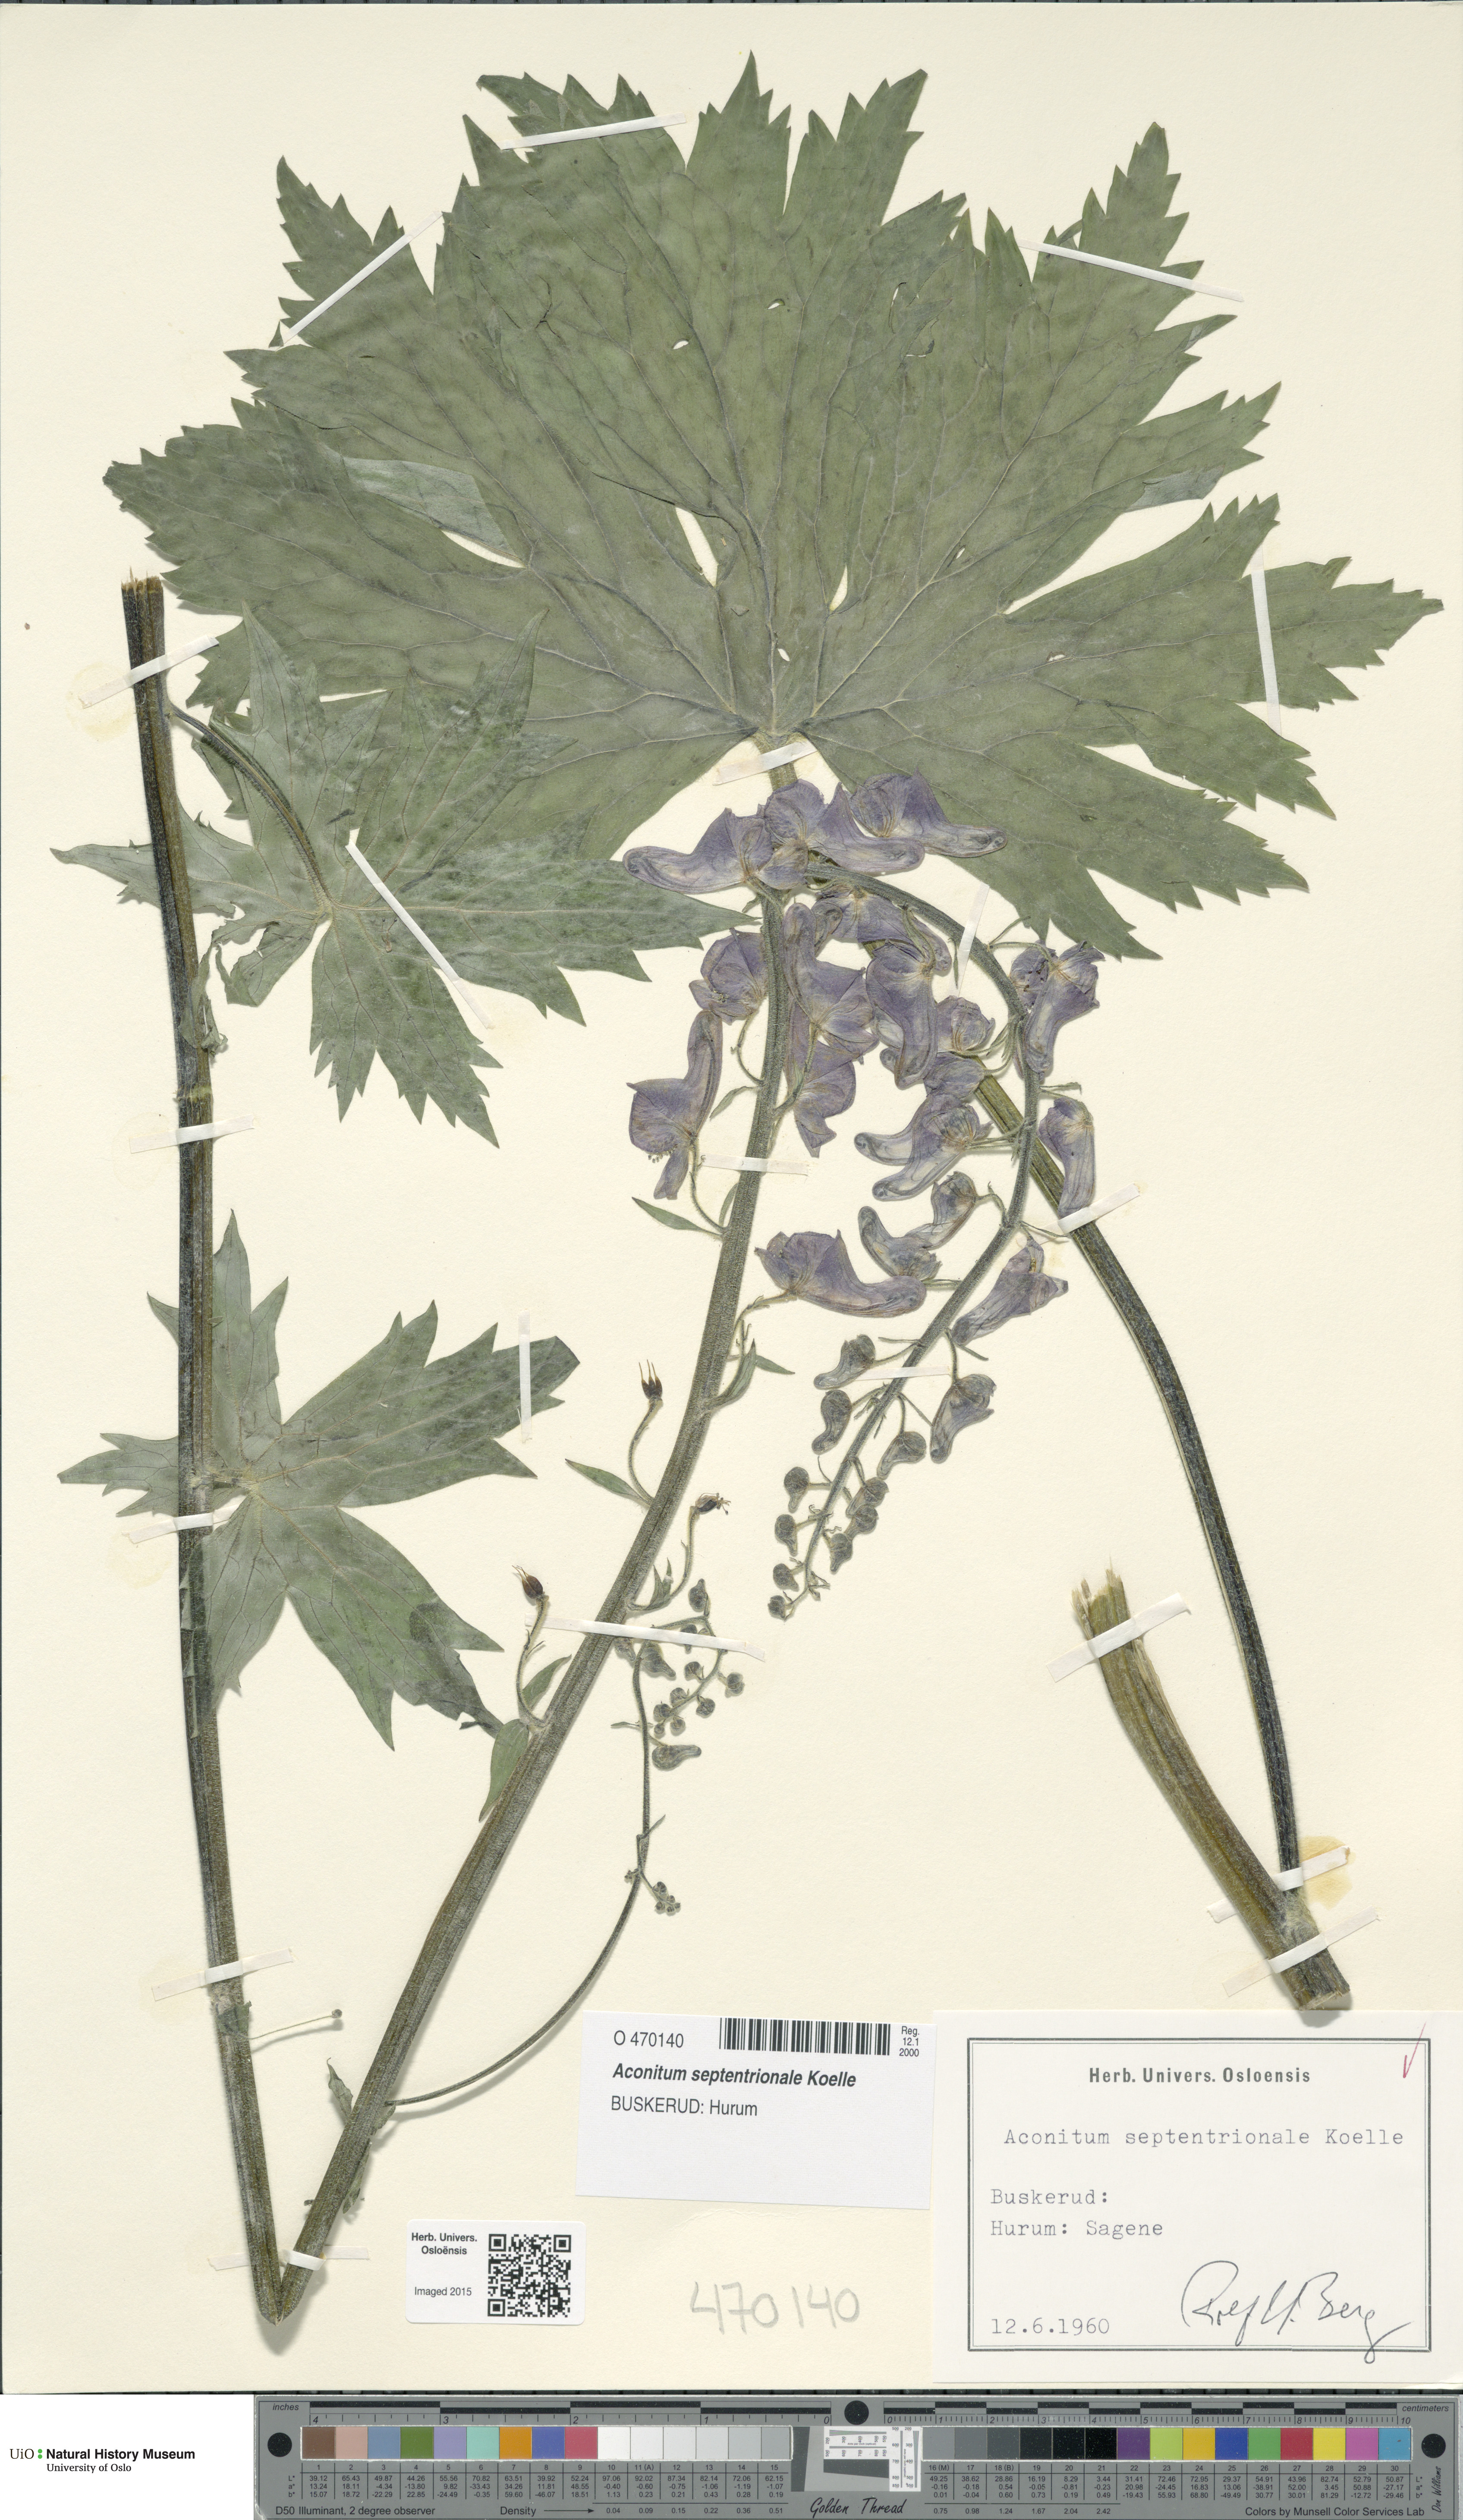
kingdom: Plantae
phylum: Tracheophyta
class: Magnoliopsida
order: Ranunculales
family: Ranunculaceae
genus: Aconitum
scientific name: Aconitum septentrionale
